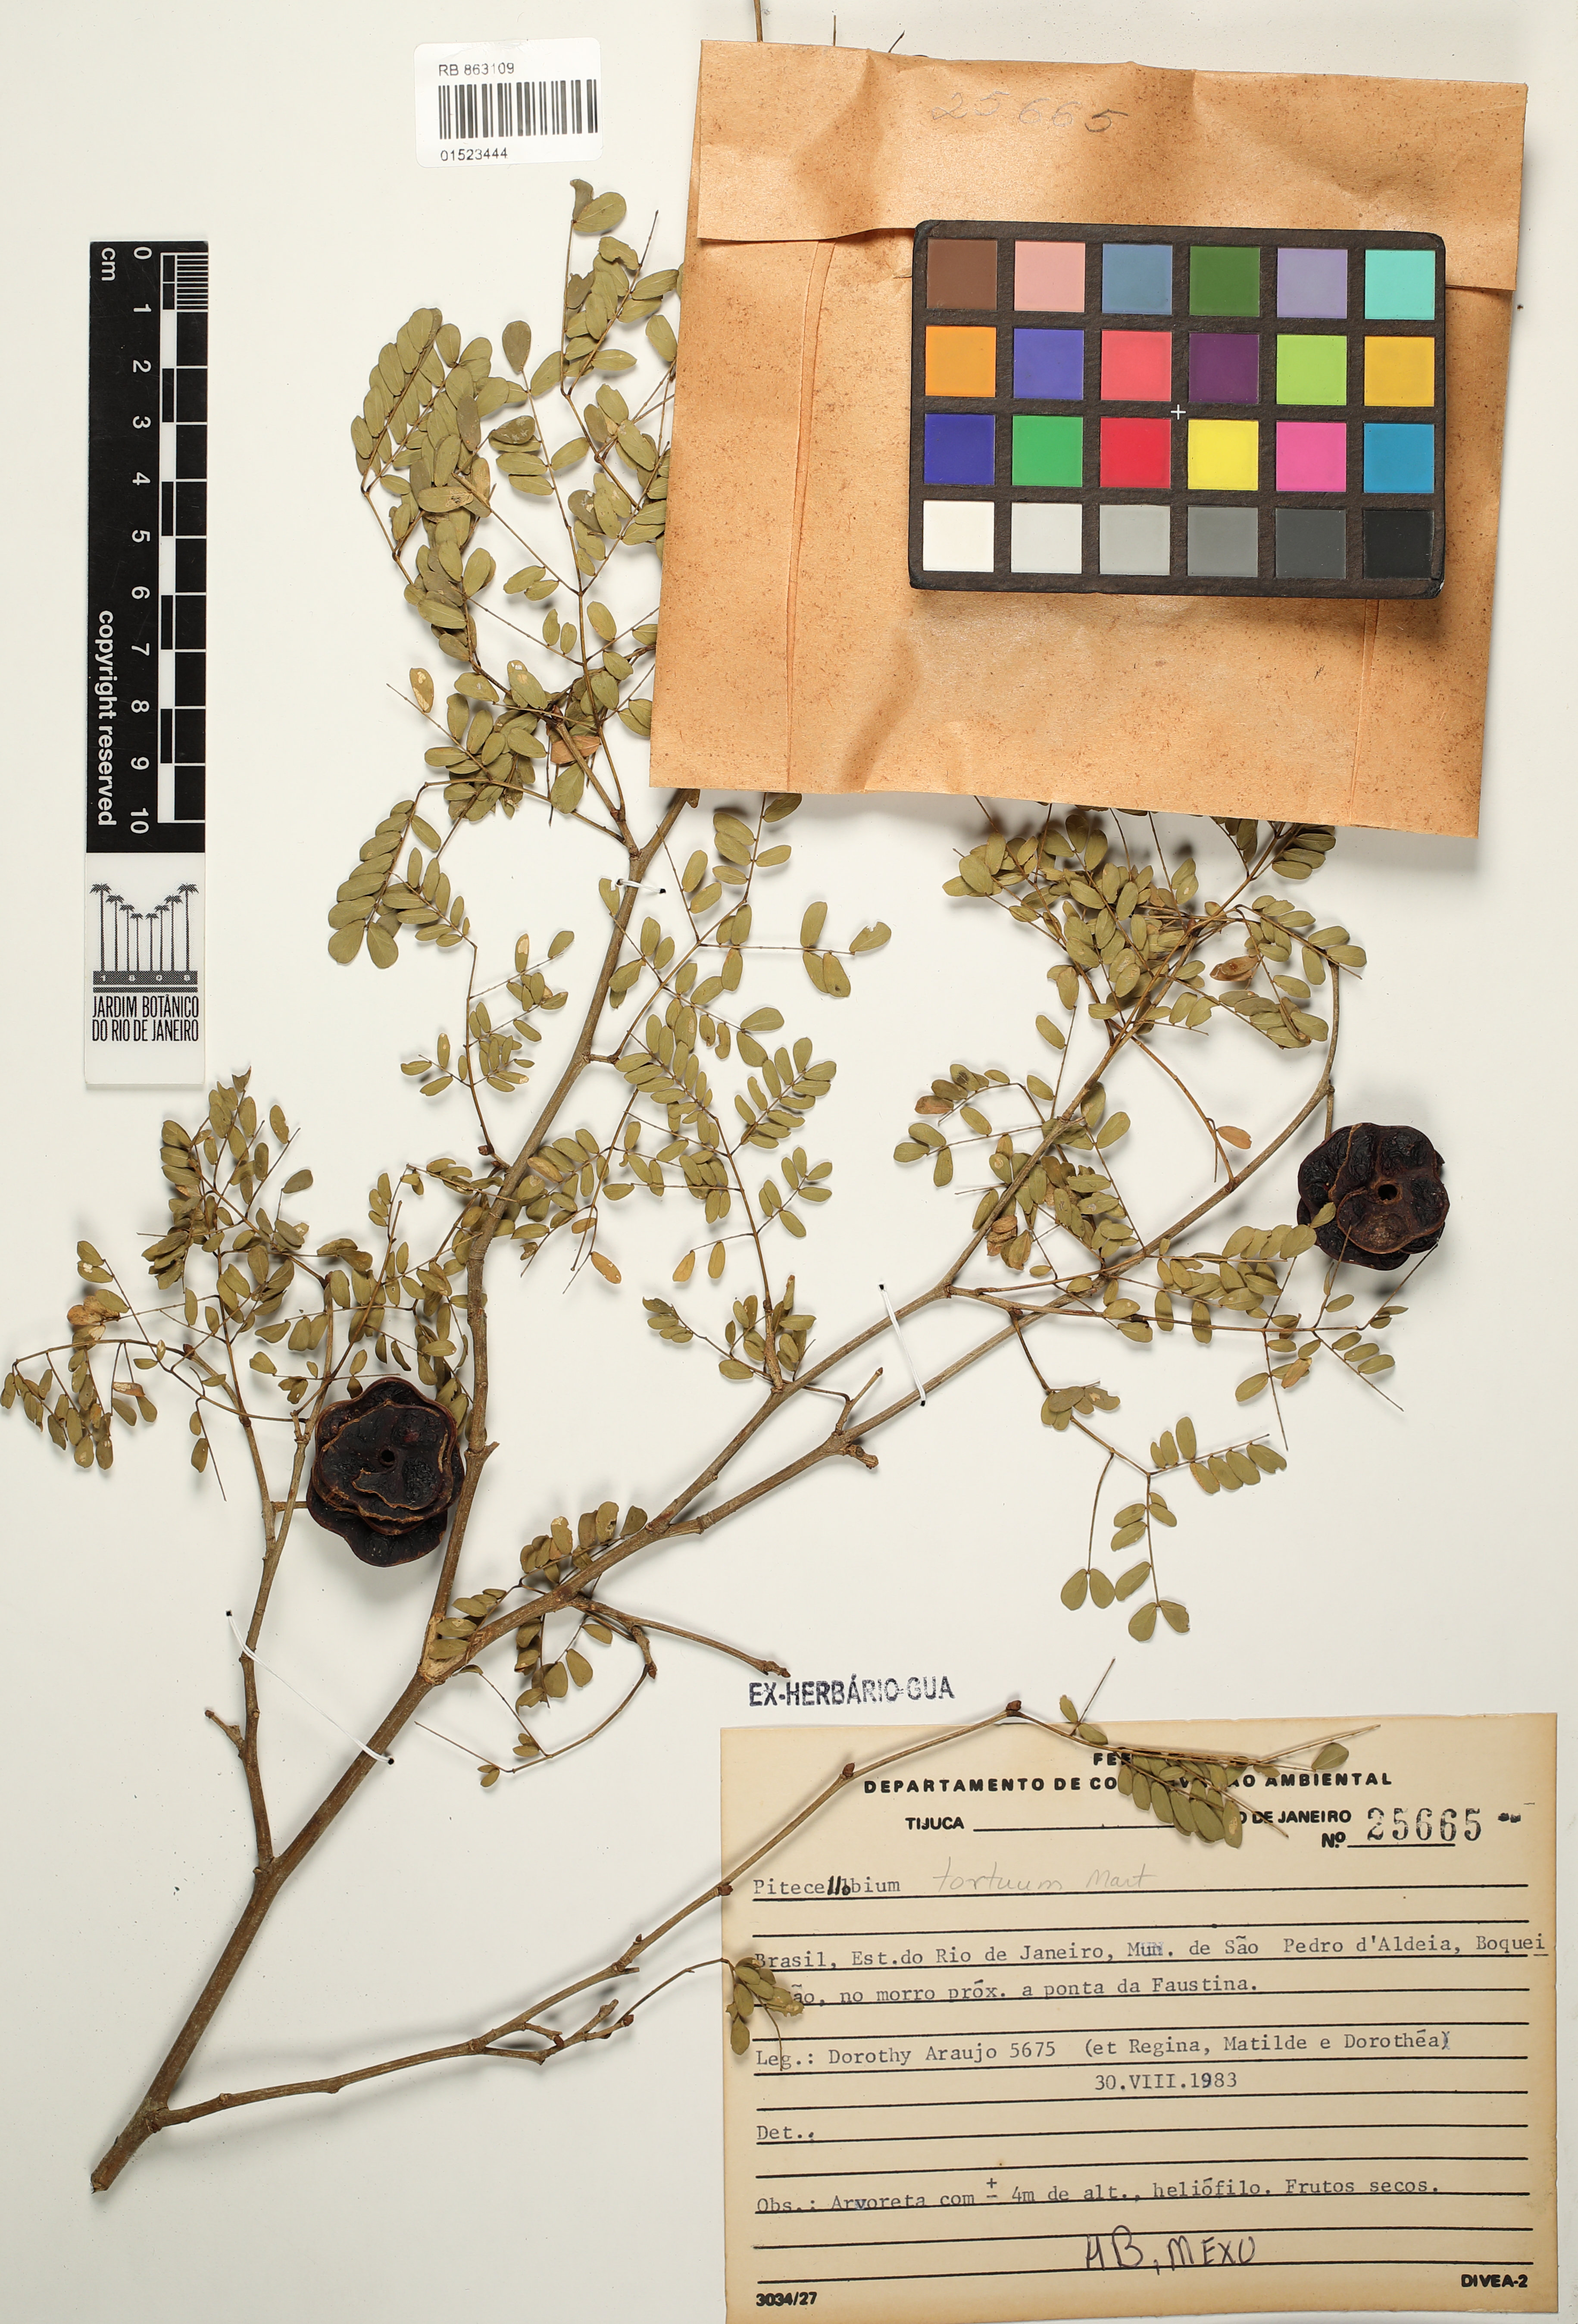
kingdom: Plantae
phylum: Tracheophyta
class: Magnoliopsida
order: Fabales
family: Fabaceae
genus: Chloroleucon
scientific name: Chloroleucon tortum
